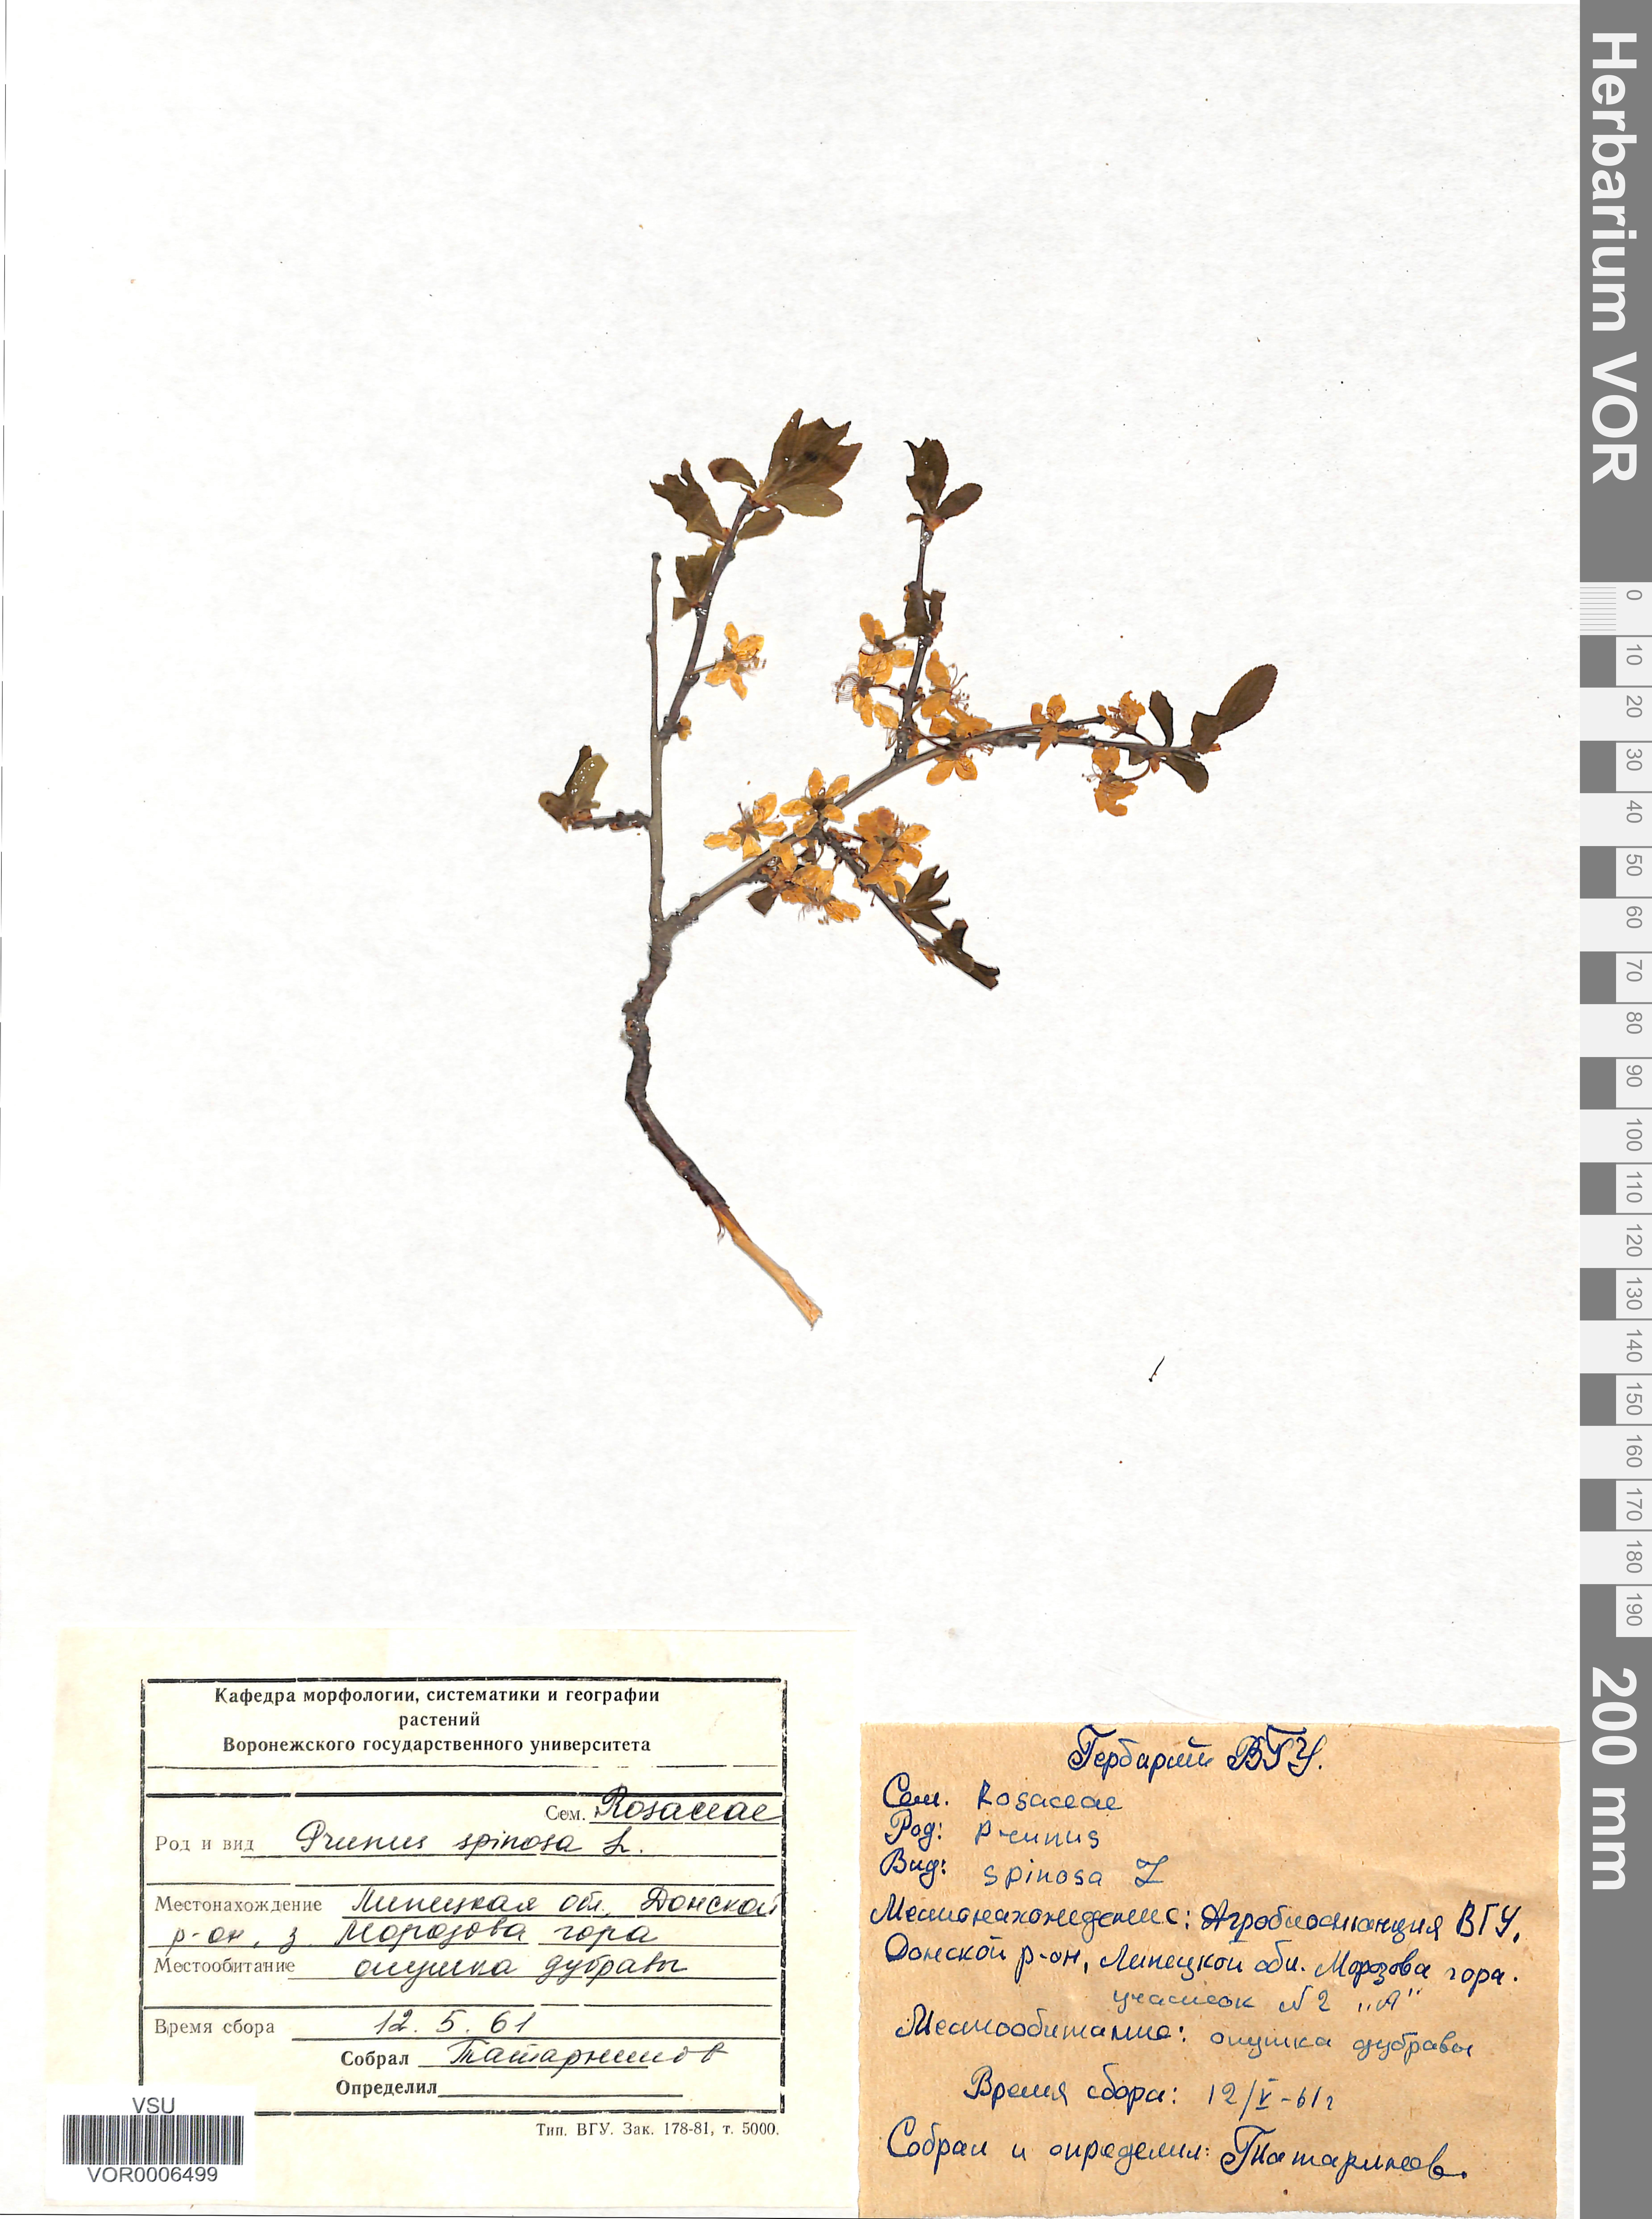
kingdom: Plantae
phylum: Tracheophyta
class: Magnoliopsida
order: Rosales
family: Rosaceae
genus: Prunus
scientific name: Prunus spinosa
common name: Blackthorn
